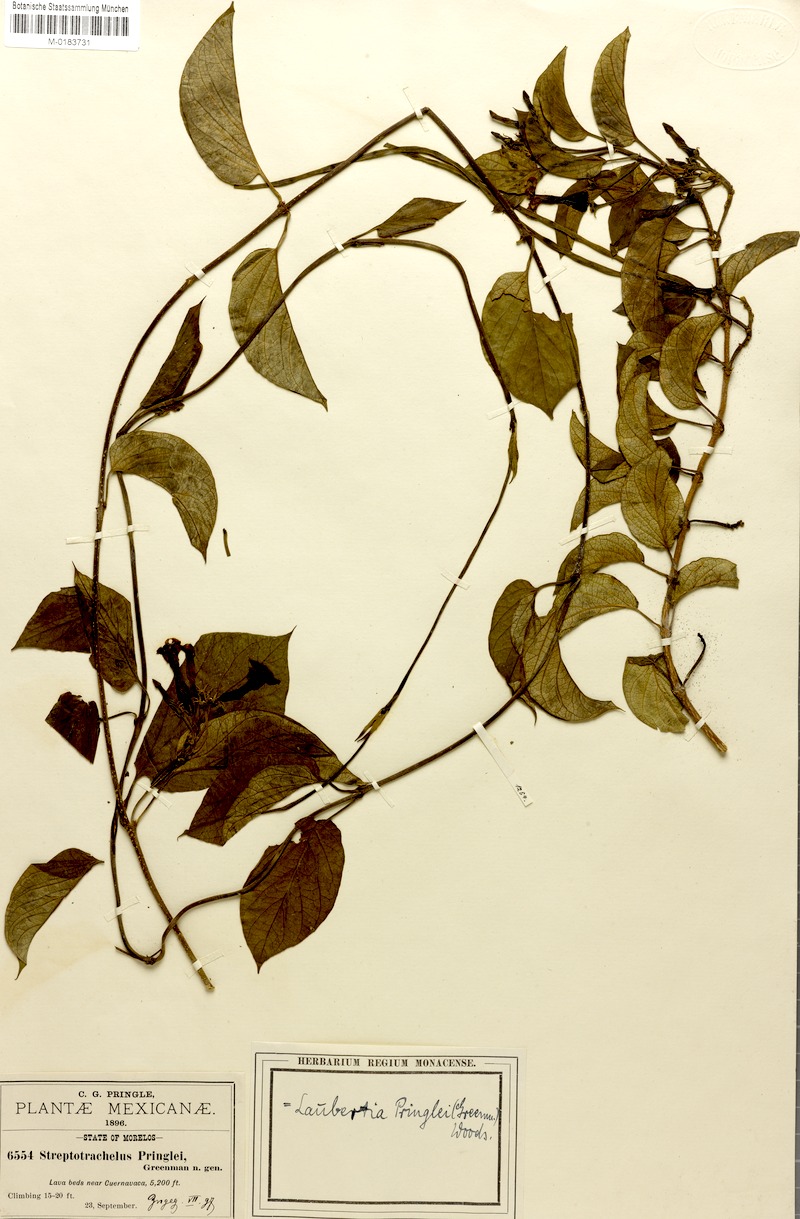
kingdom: Plantae
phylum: Tracheophyta
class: Magnoliopsida
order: Gentianales
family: Apocynaceae
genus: Laubertia
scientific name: Laubertia contorta
